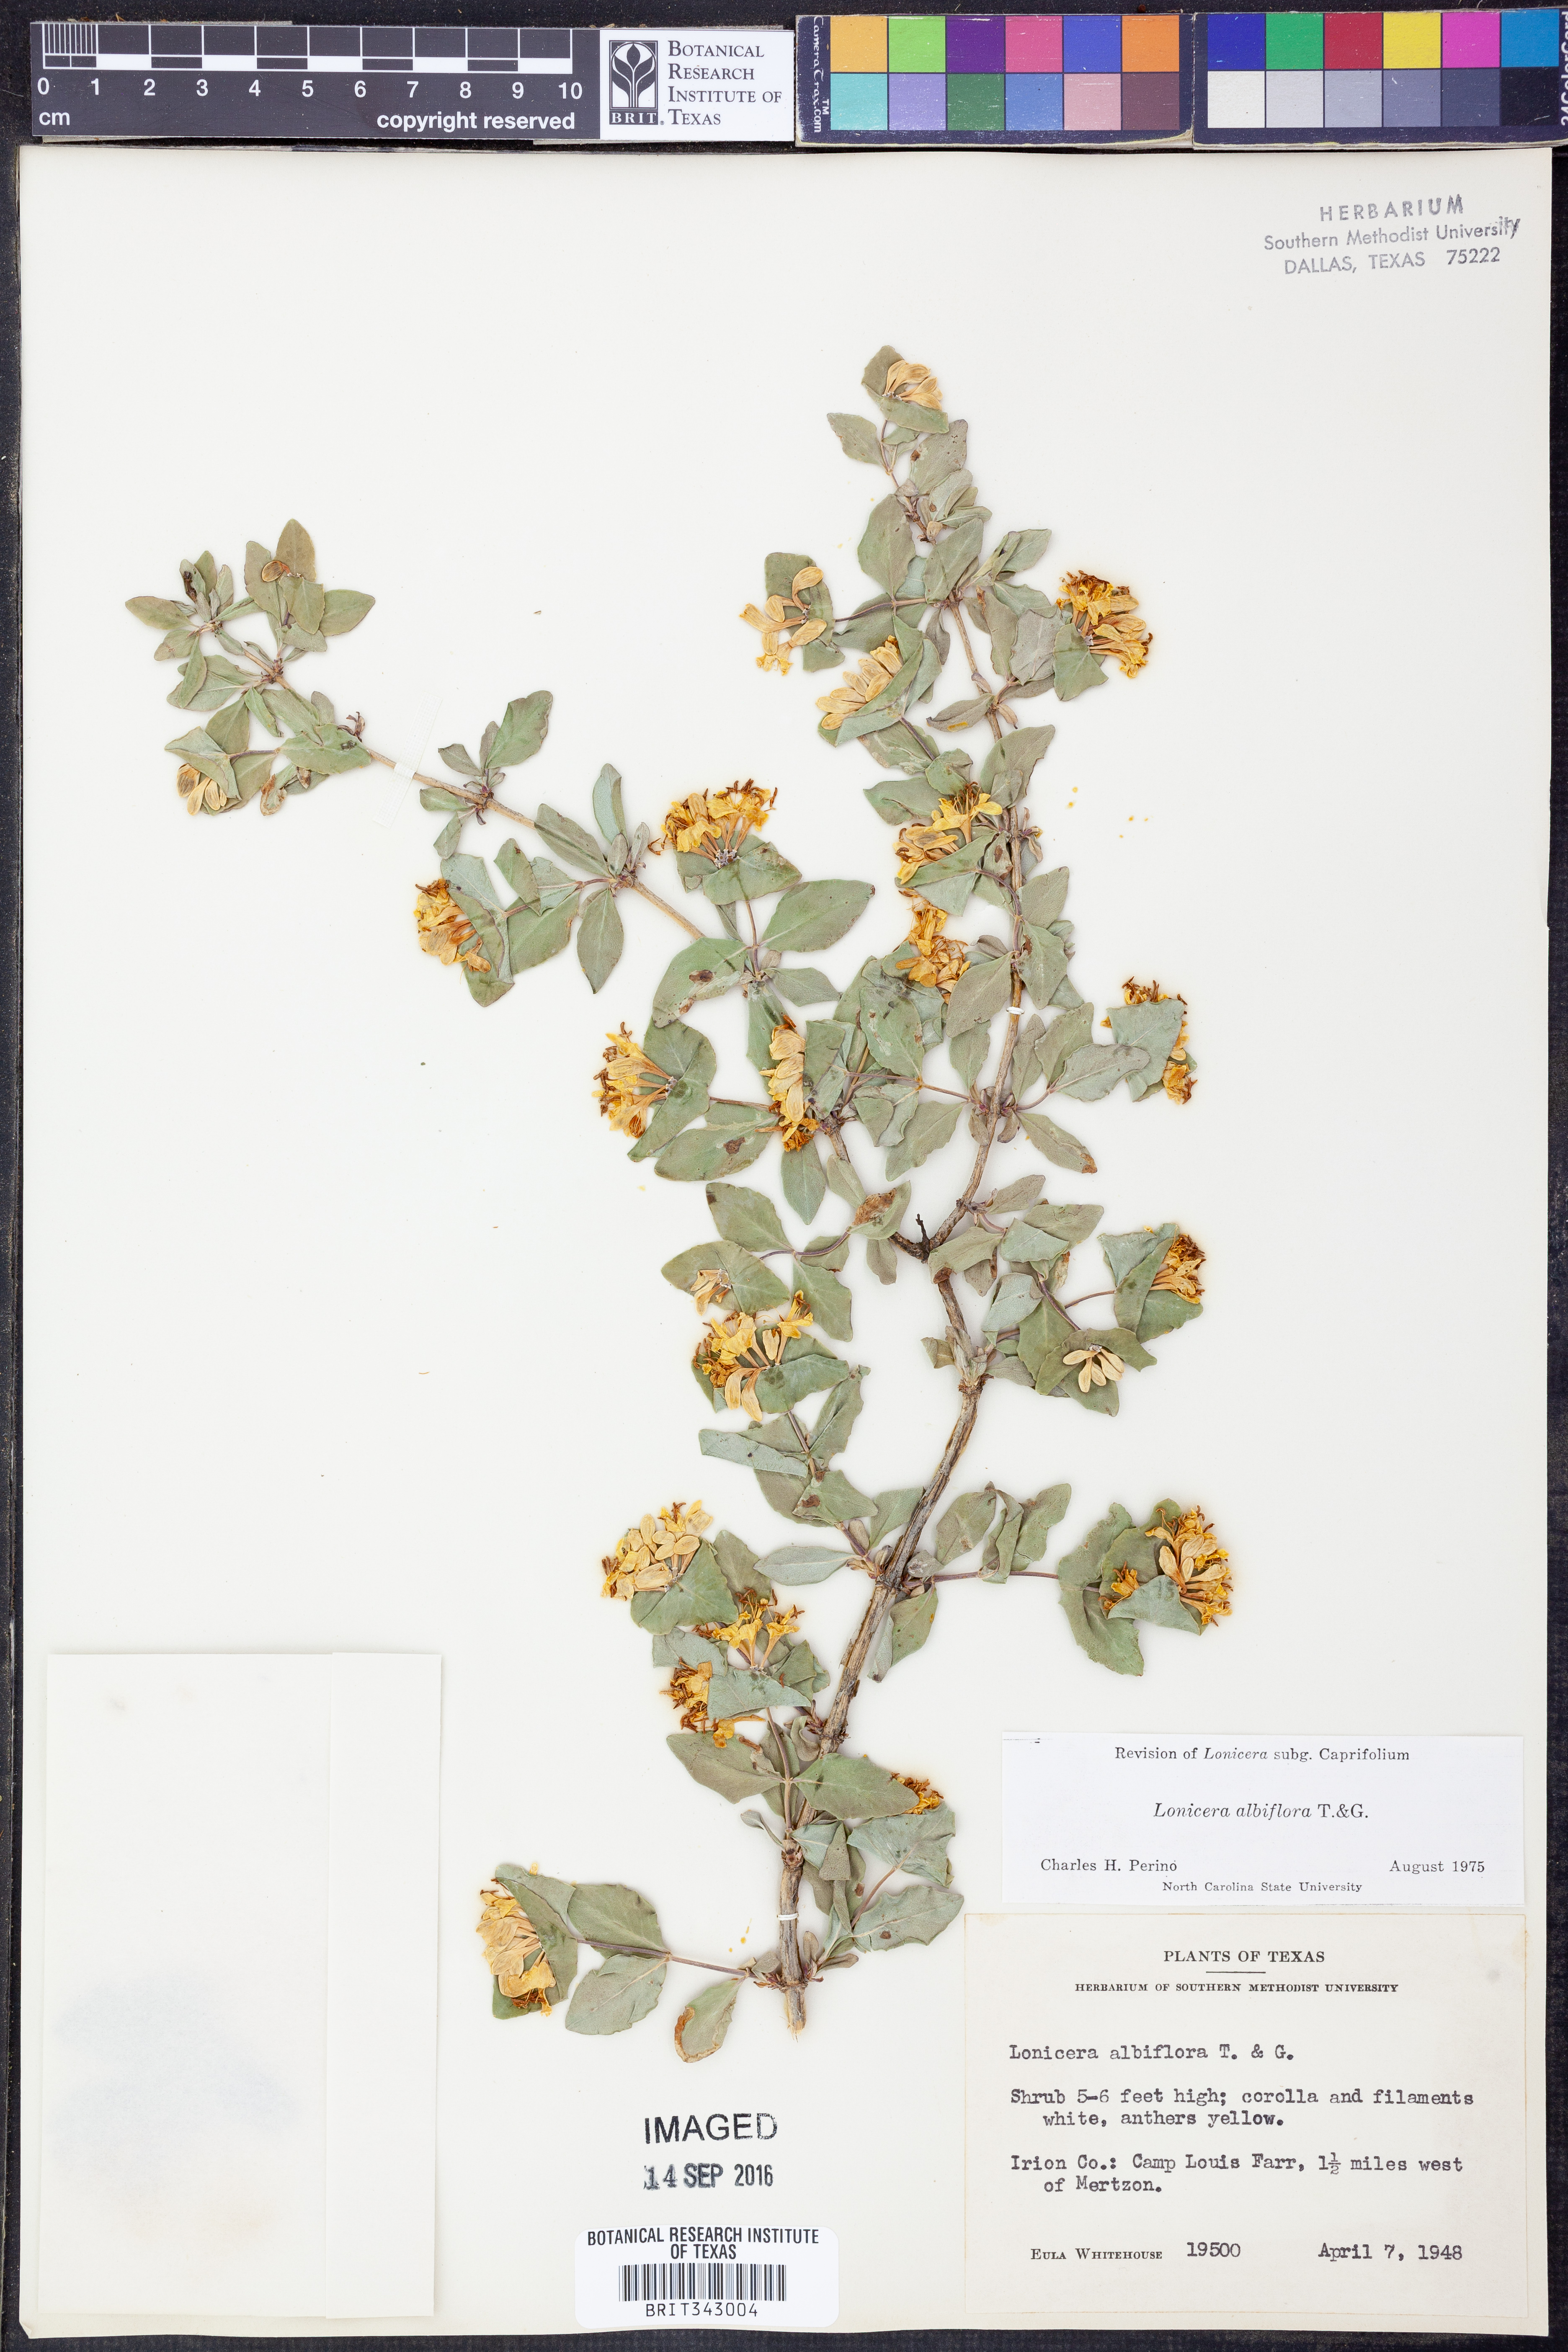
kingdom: Plantae
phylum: Tracheophyta
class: Magnoliopsida
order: Dipsacales
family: Caprifoliaceae
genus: Lonicera
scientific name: Lonicera albiflora
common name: White honeysuckle
